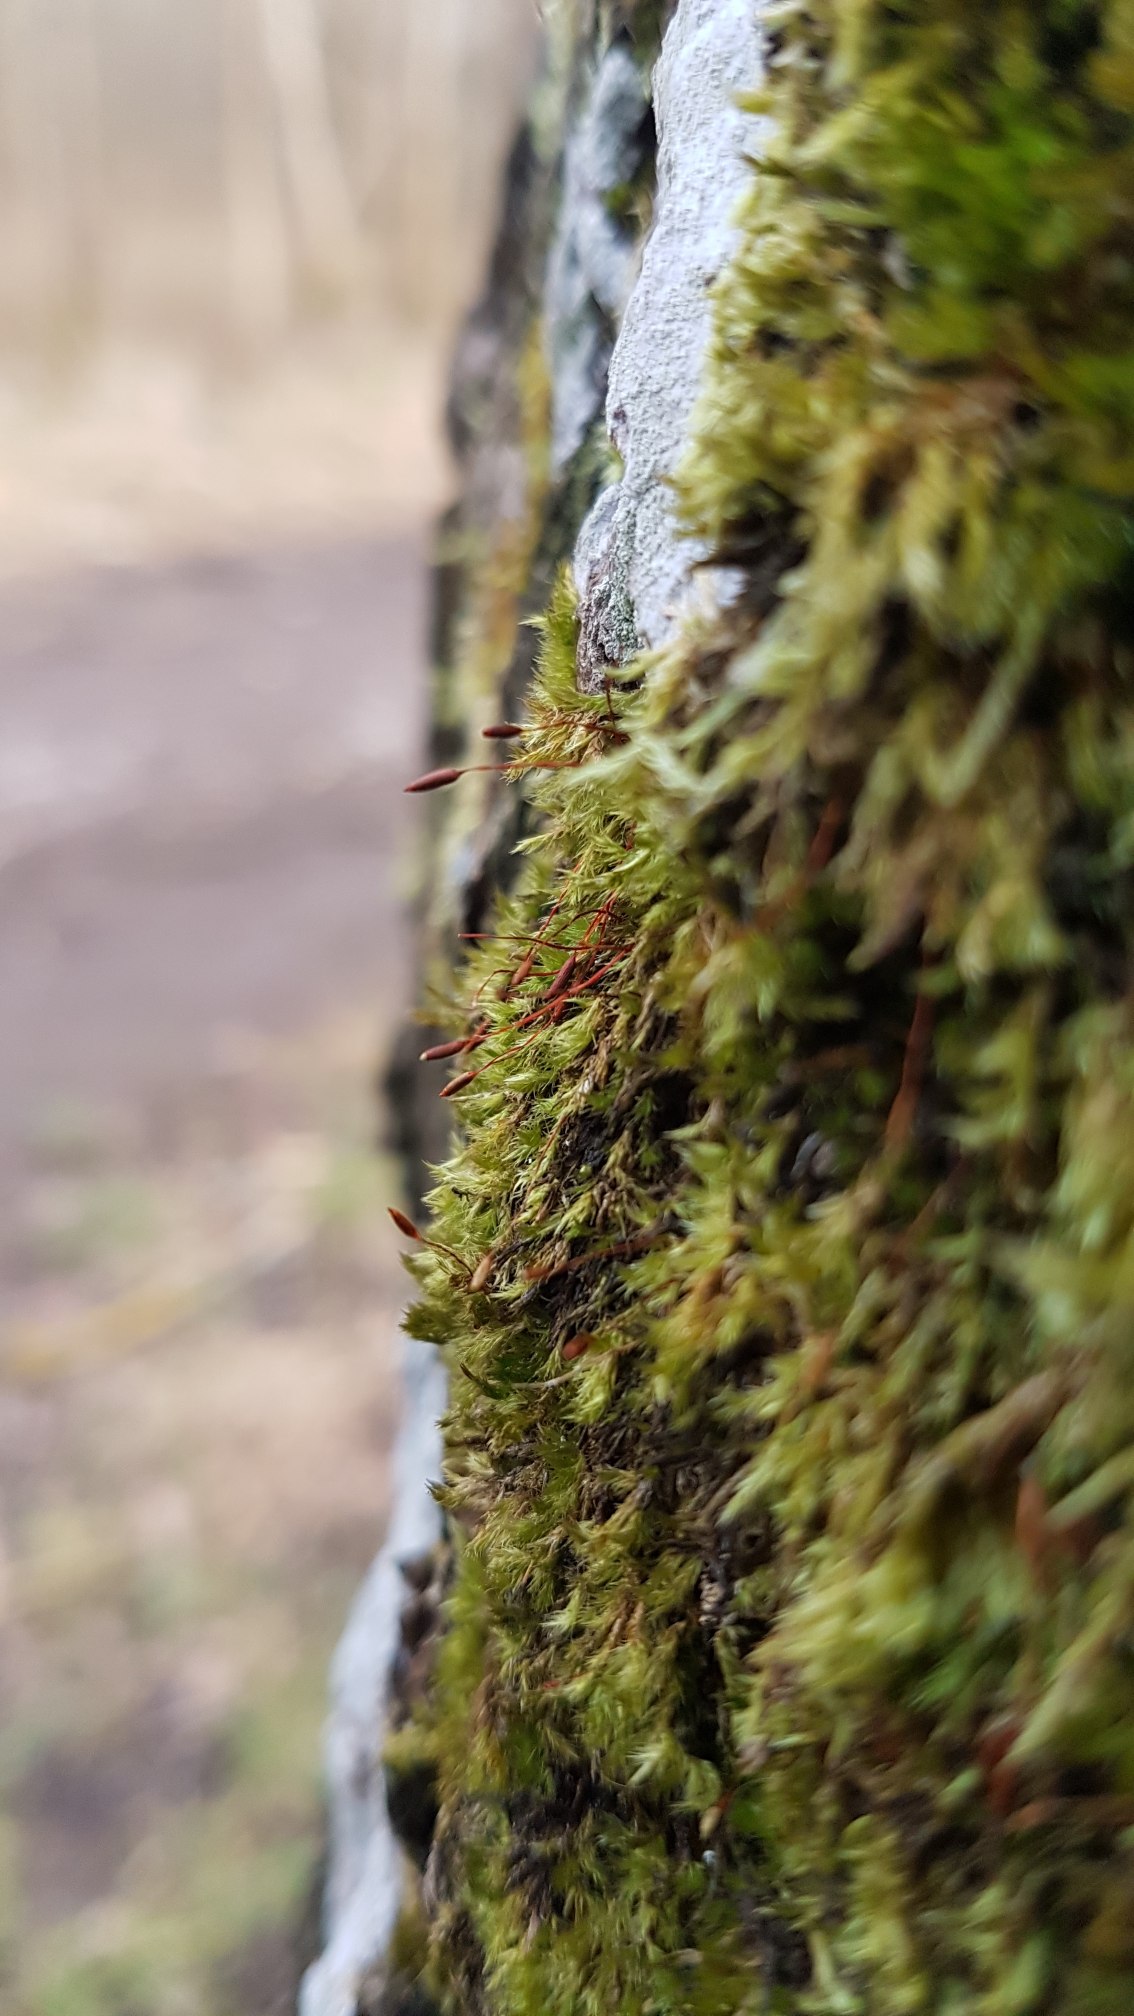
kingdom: Plantae
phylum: Bryophyta
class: Bryopsida
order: Hypnales
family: Pylaisiaceae
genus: Pylaisia
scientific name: Pylaisia polyantha
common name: Mangefrugtet aspemos
